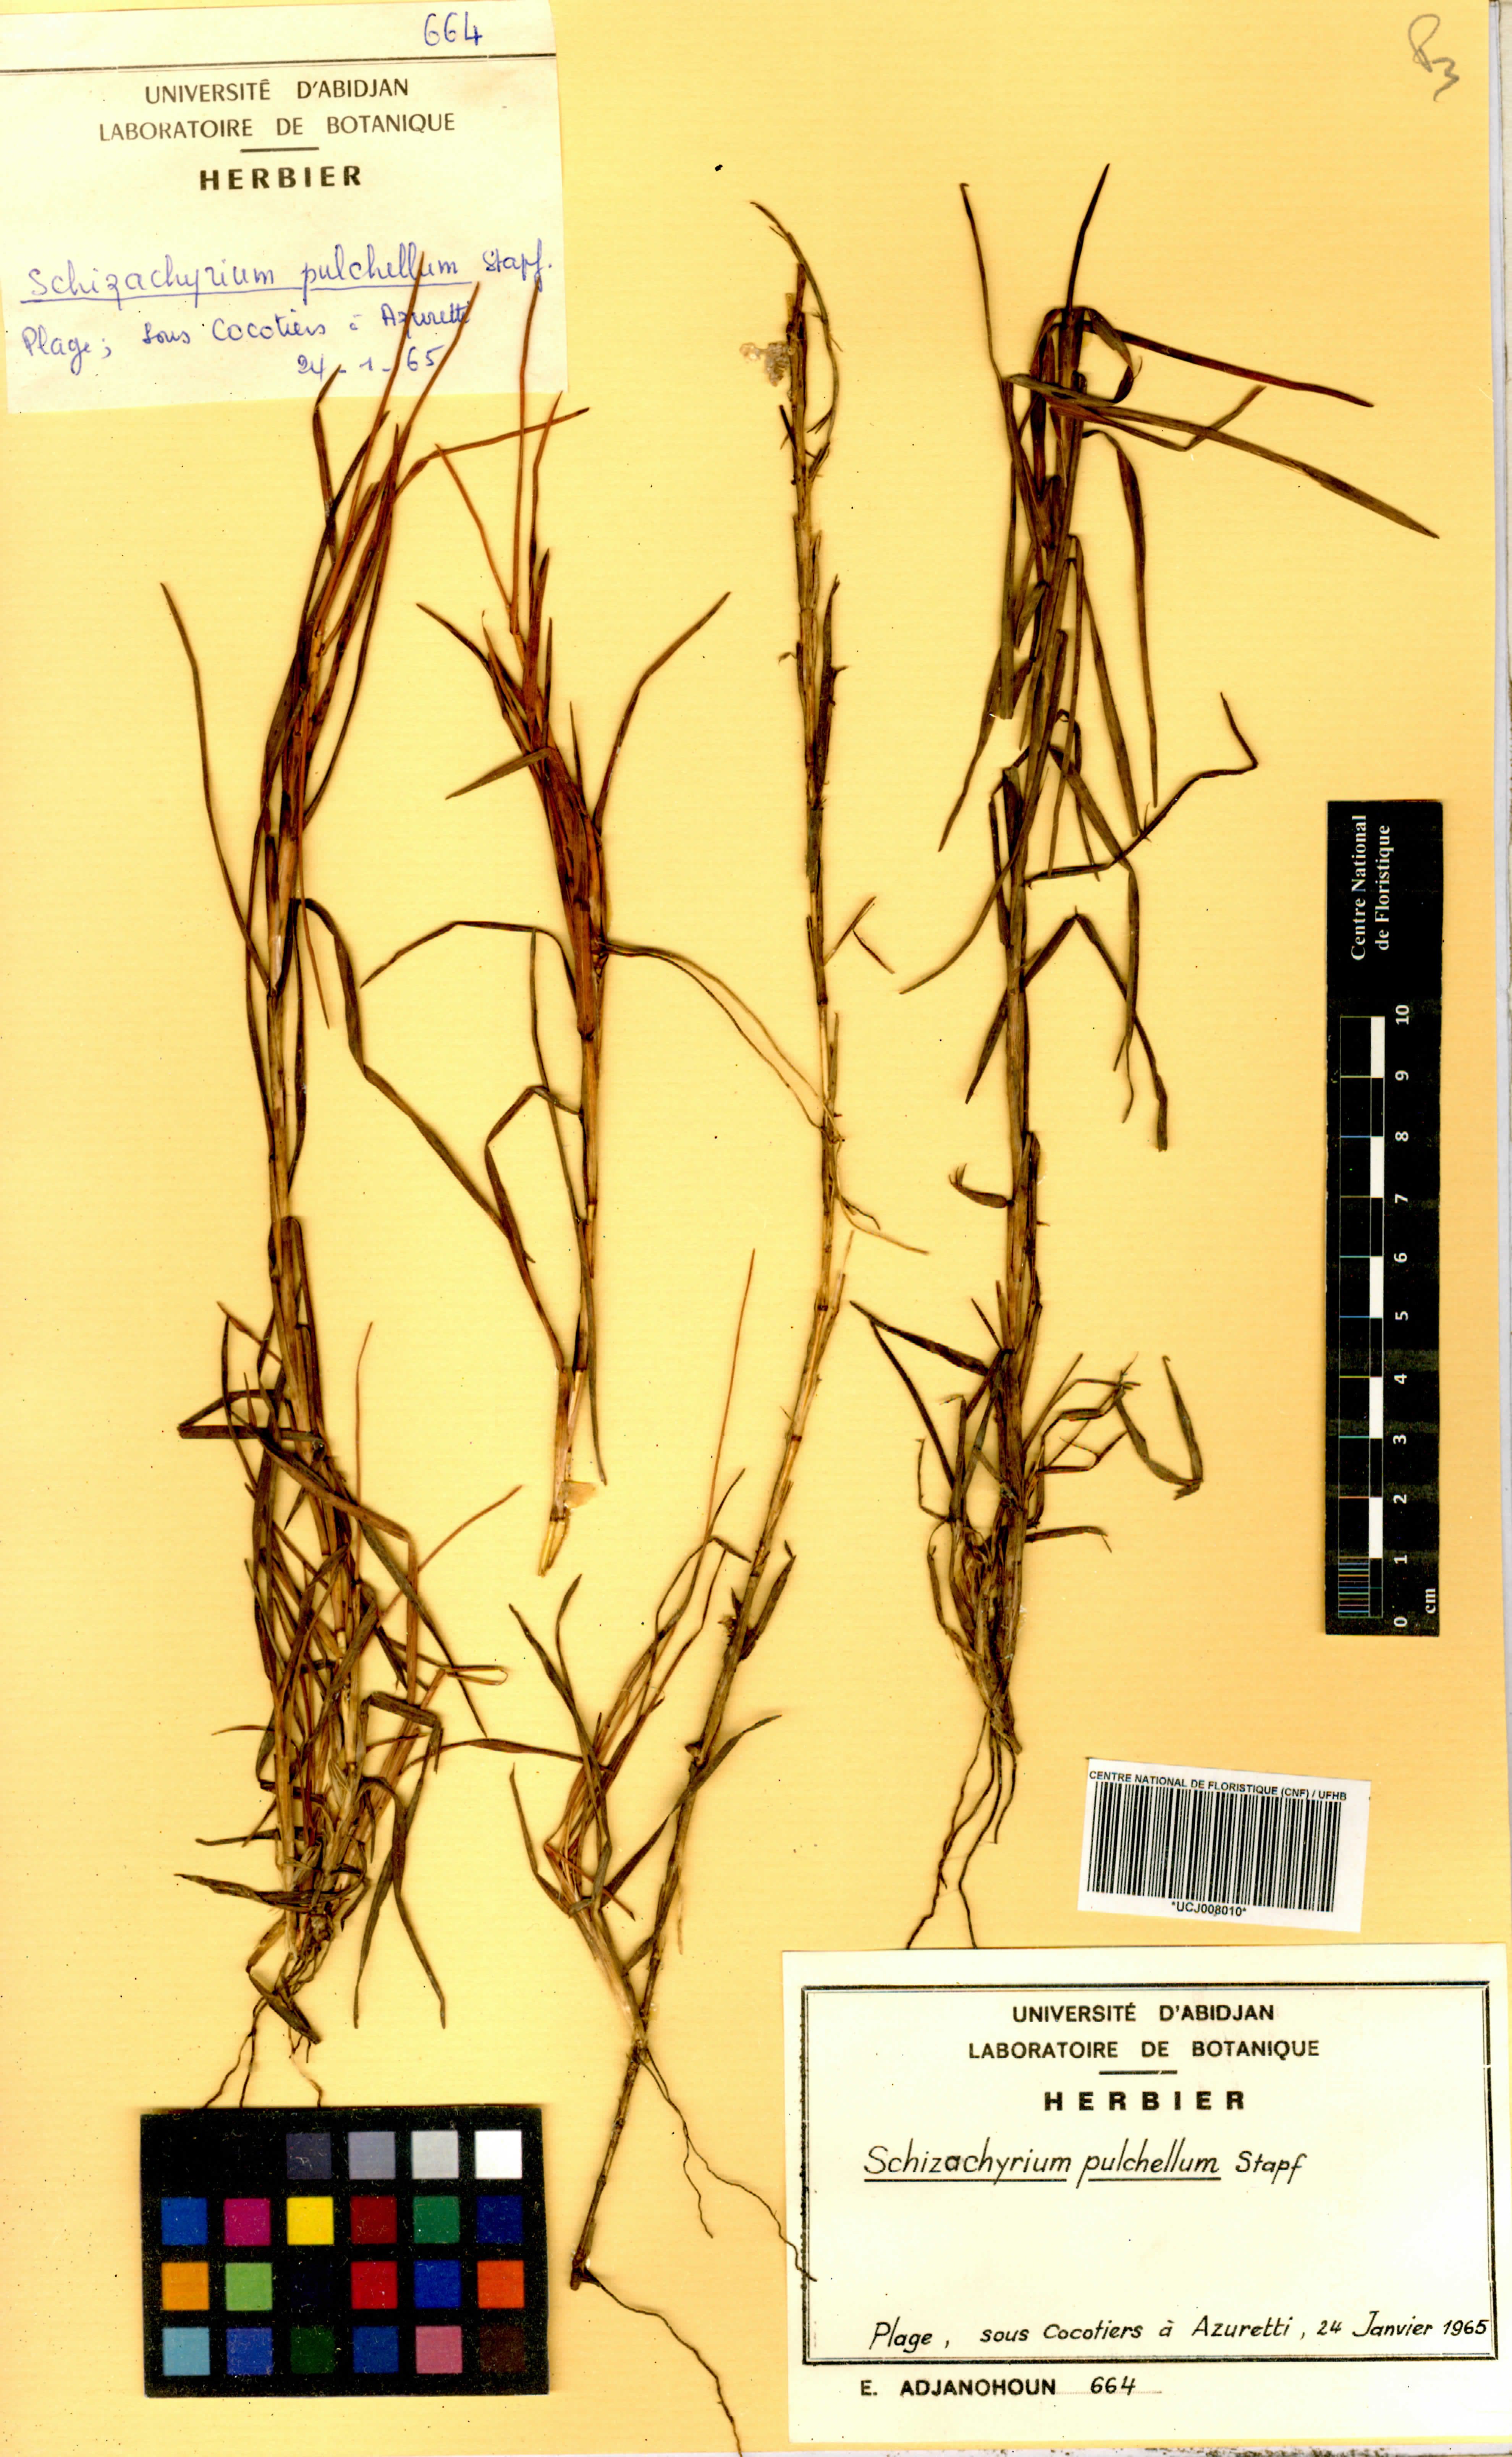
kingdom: Plantae
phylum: Tracheophyta
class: Liliopsida
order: Poales
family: Poaceae
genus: Schizachyrium
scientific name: Schizachyrium pulchellum
